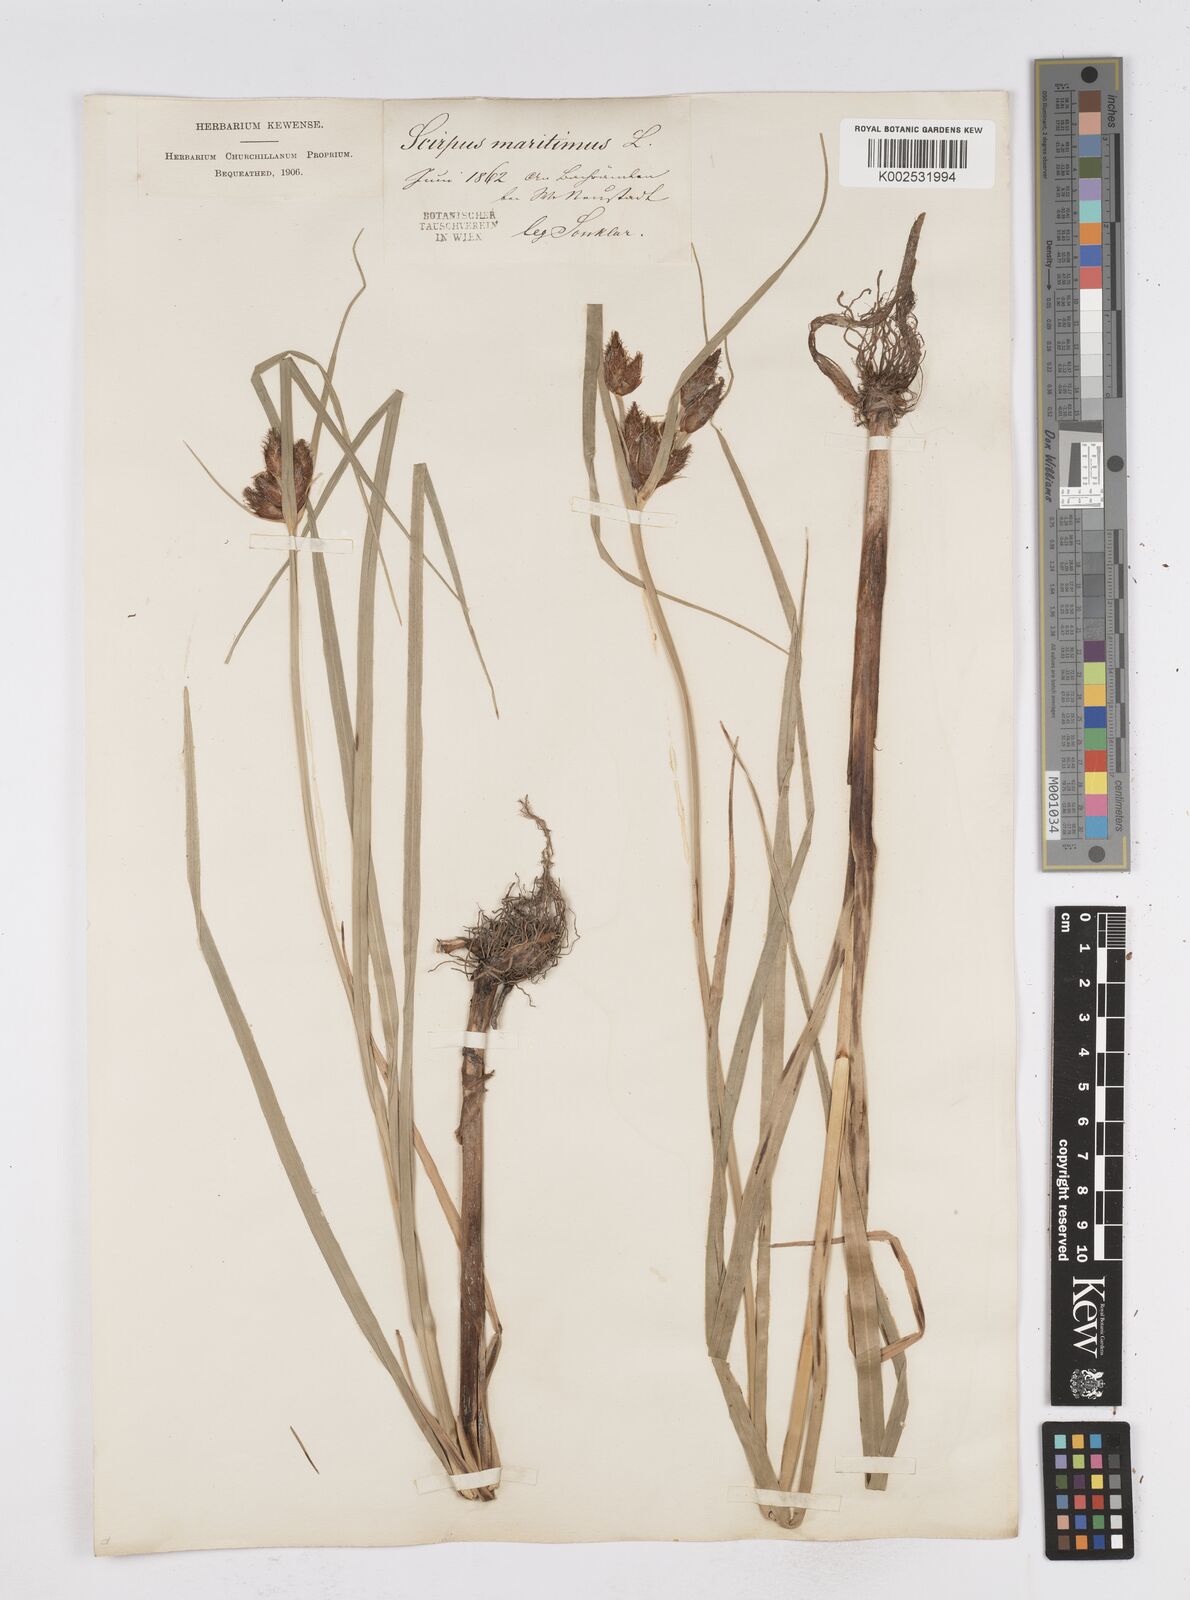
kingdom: Plantae
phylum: Tracheophyta
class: Liliopsida
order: Poales
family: Cyperaceae
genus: Bolboschoenus
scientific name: Bolboschoenus maritimus
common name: Sea club-rush
